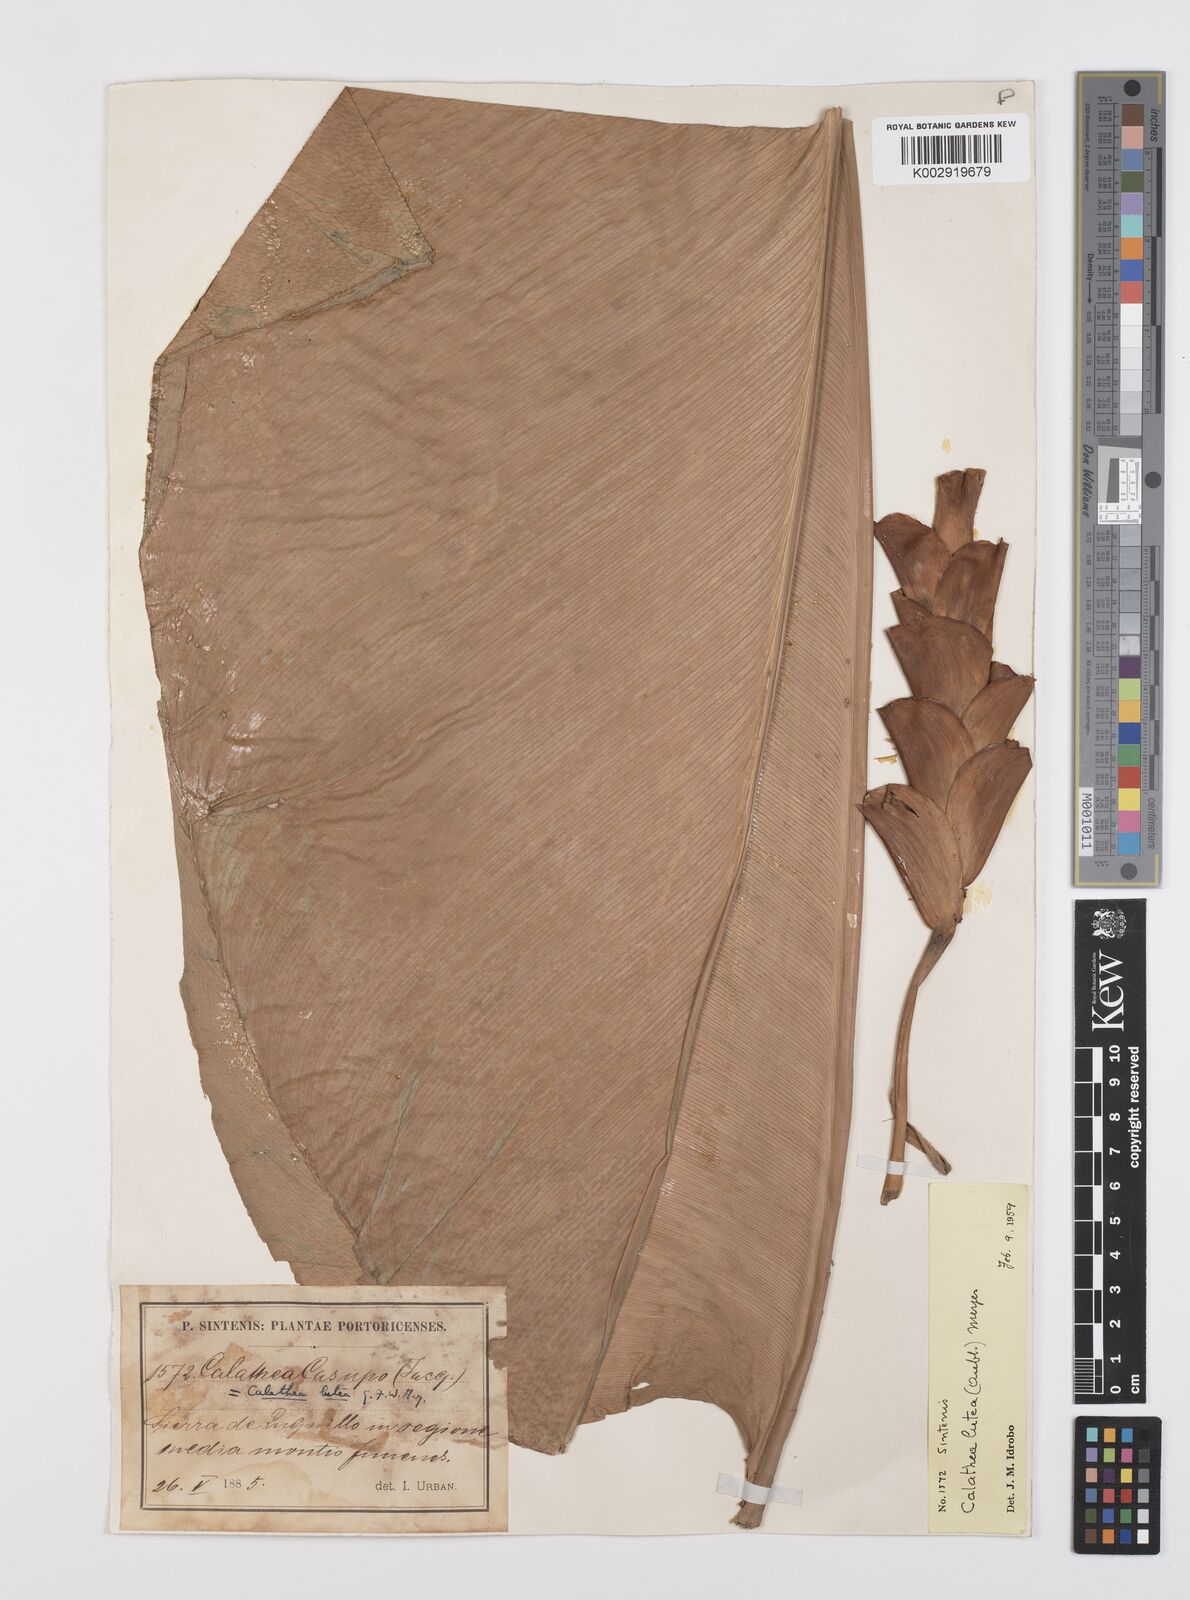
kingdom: Plantae
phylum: Tracheophyta
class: Liliopsida
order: Zingiberales
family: Marantaceae
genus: Calathea
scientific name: Calathea lutea
